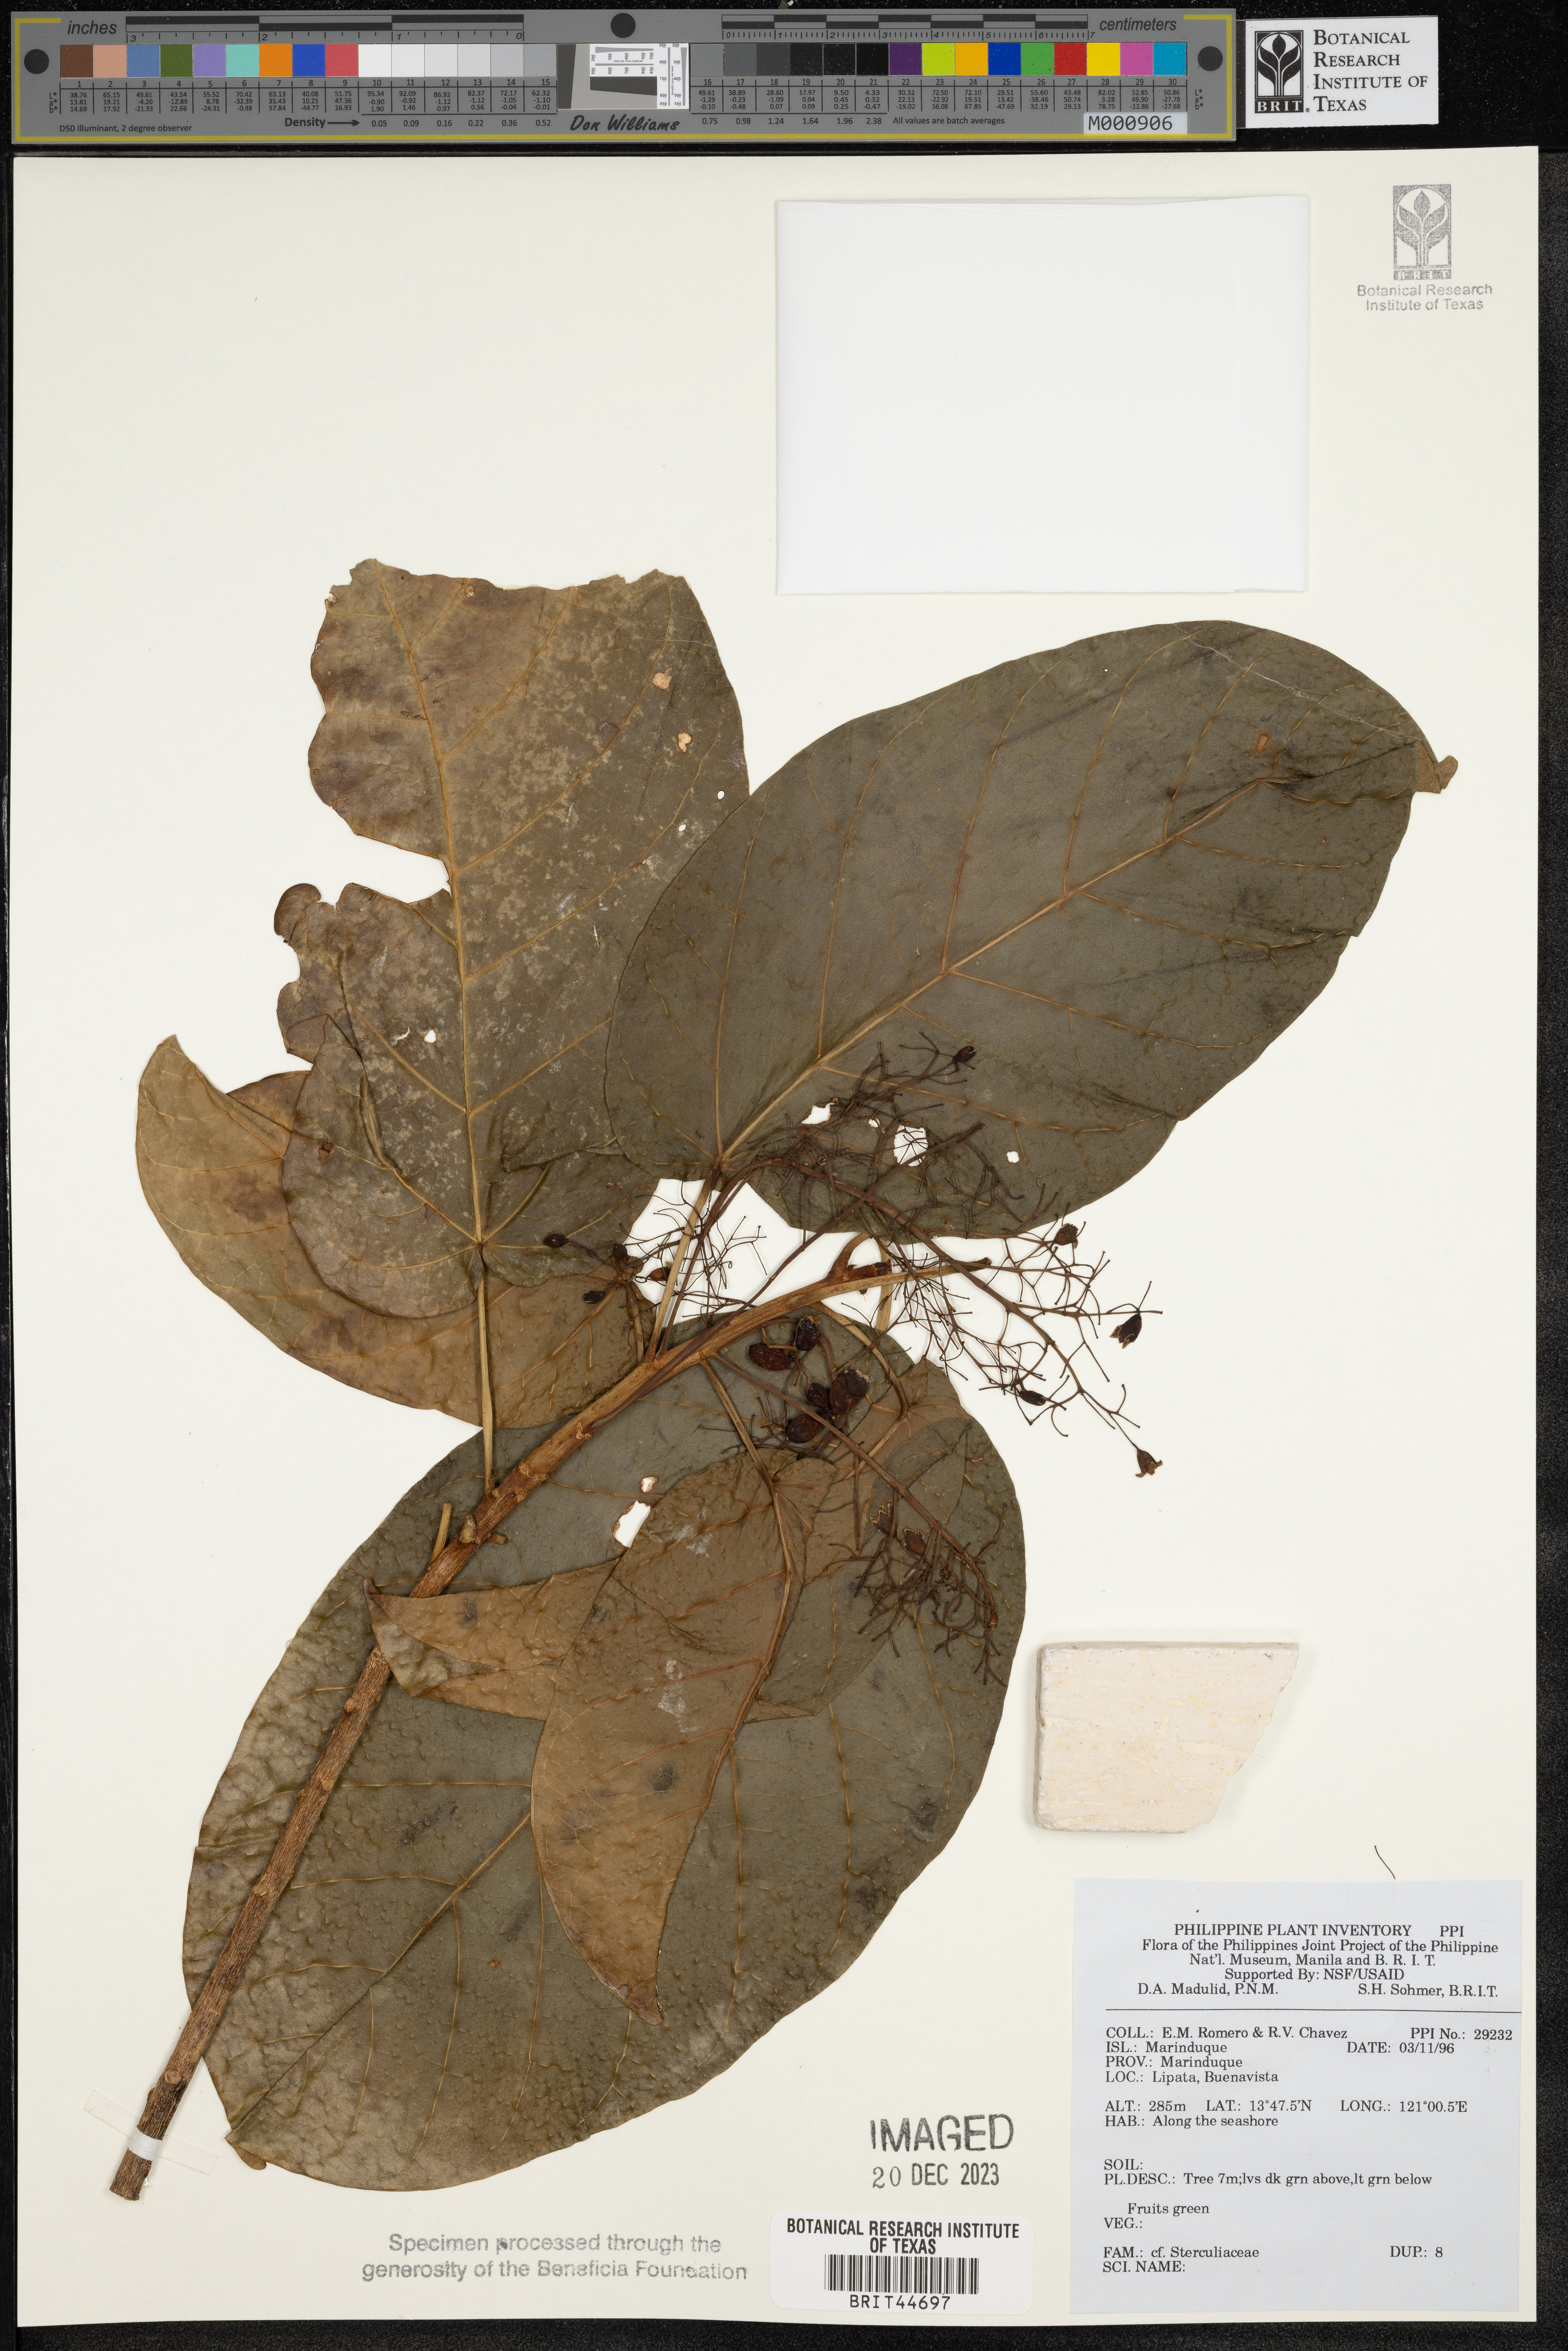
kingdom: Plantae
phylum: Tracheophyta
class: Magnoliopsida
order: Malvales
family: Sterculiaceae
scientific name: Sterculiaceae
